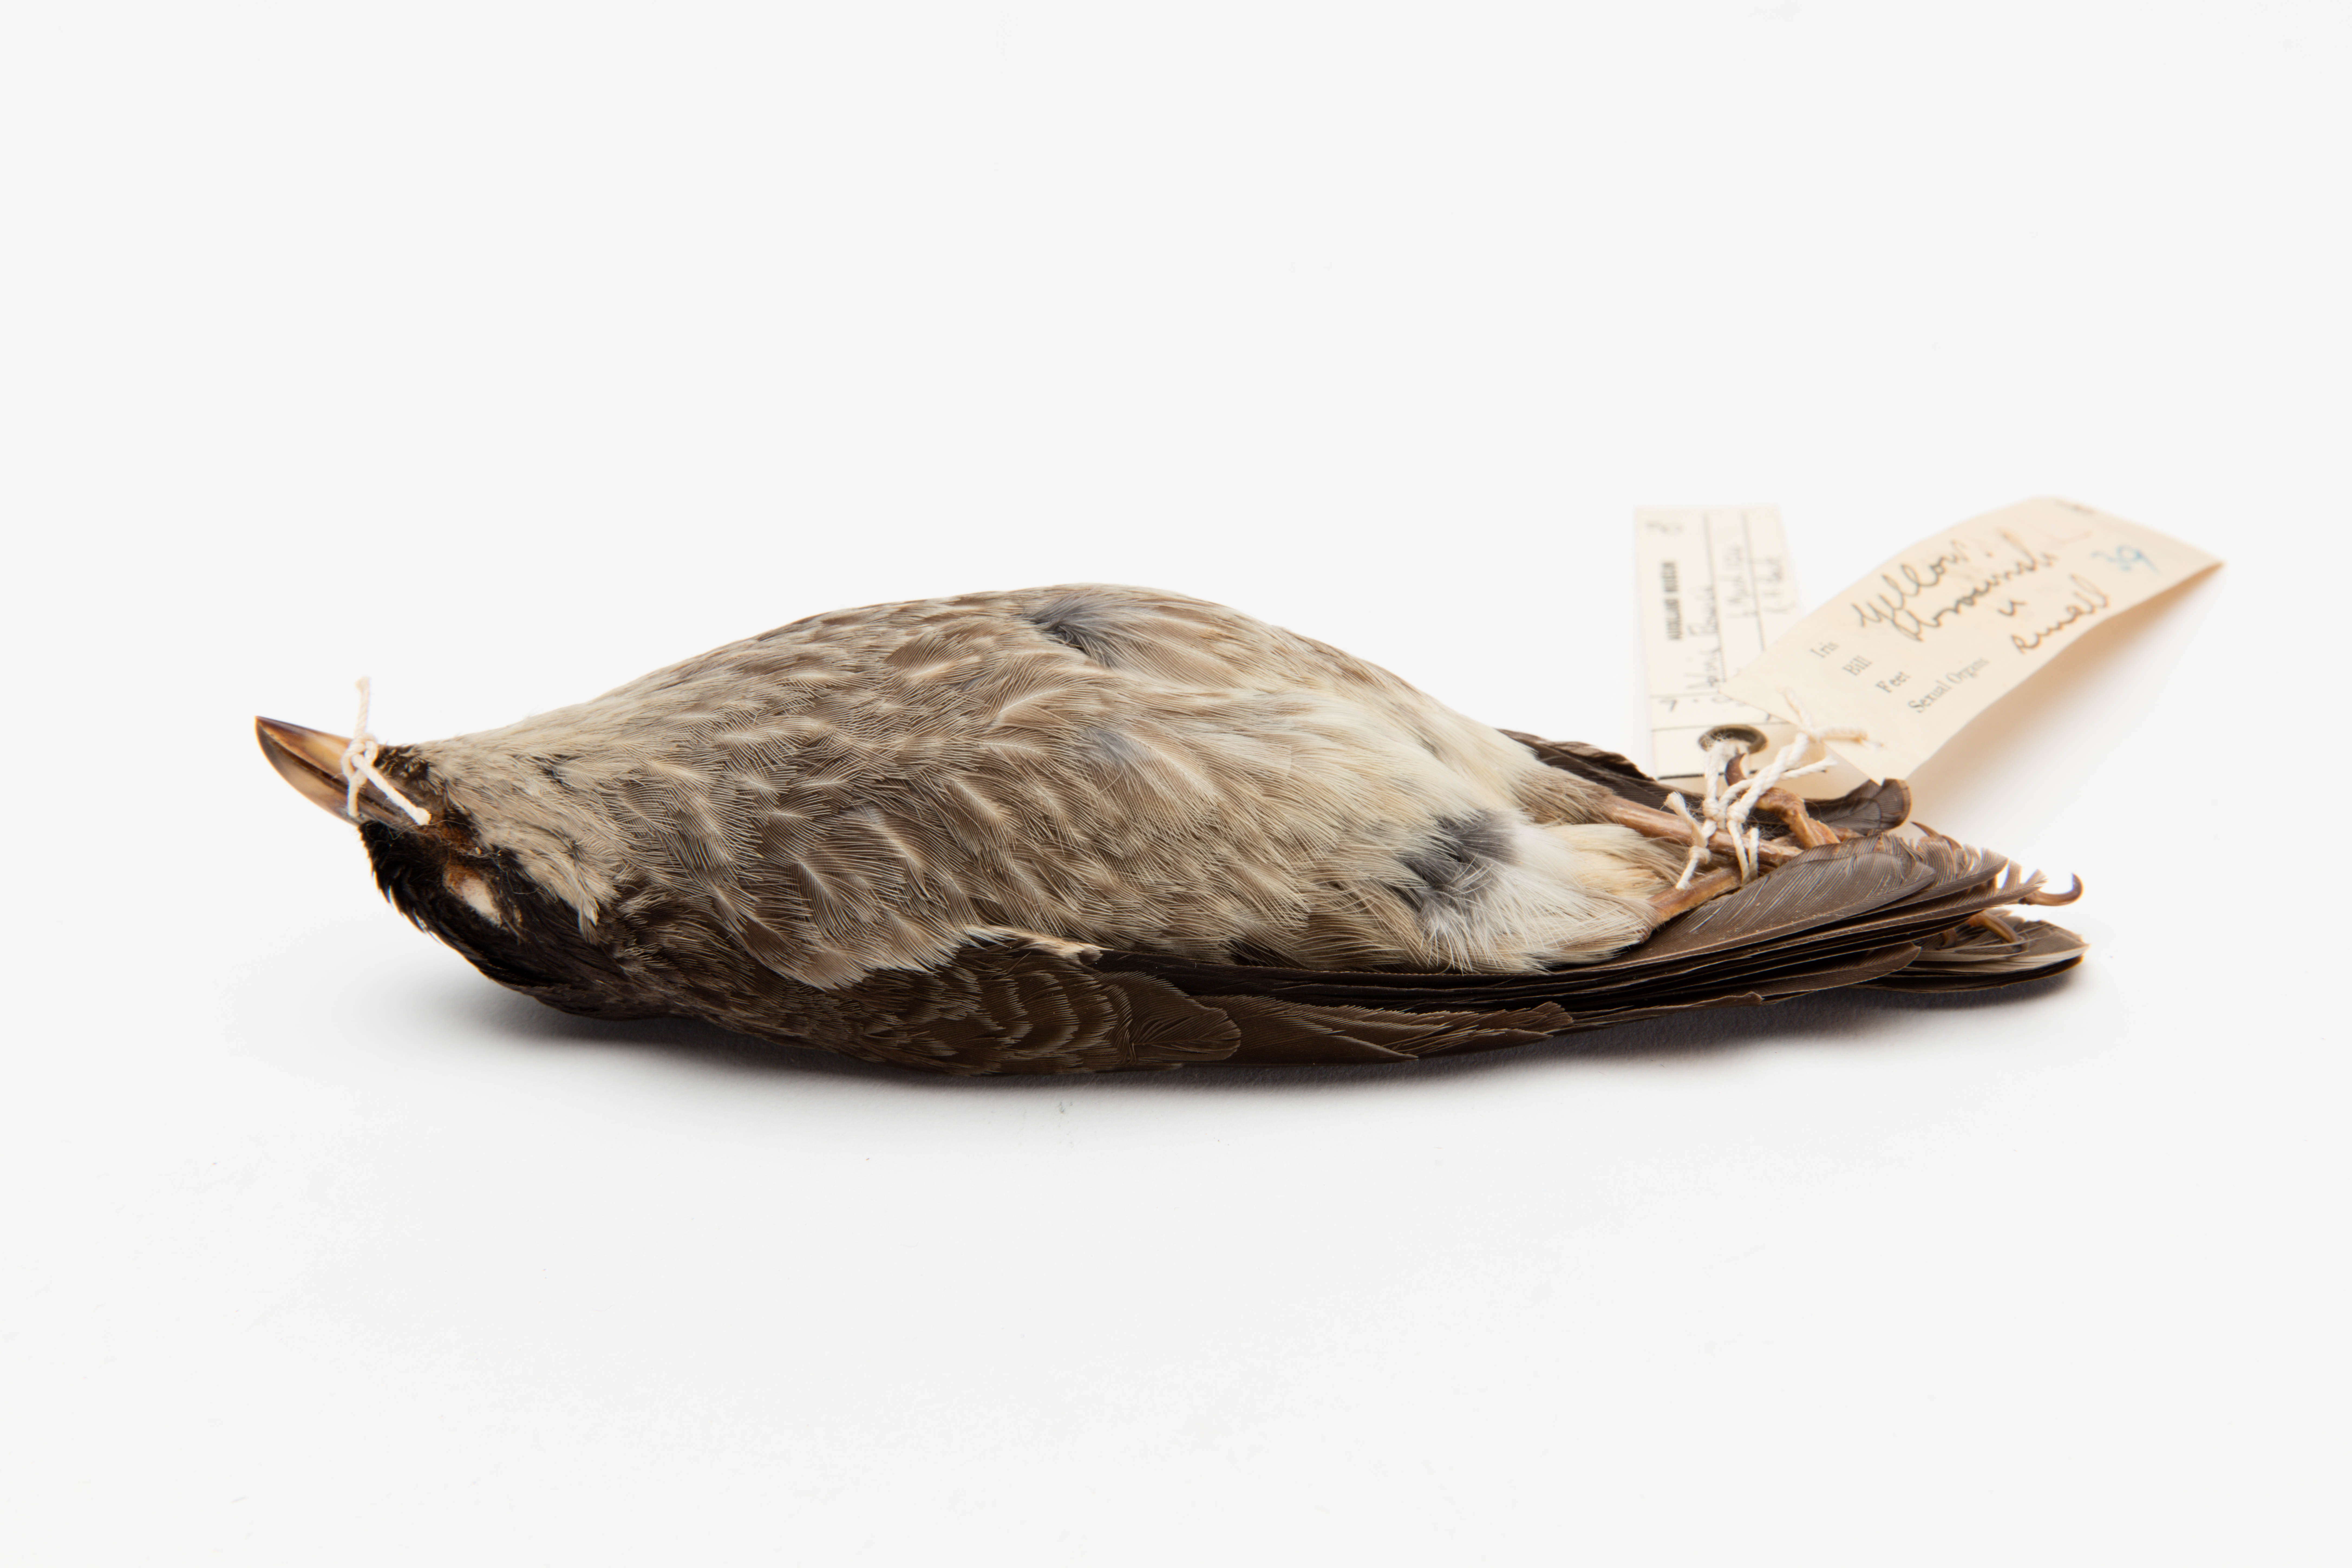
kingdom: Animalia
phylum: Chordata
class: Aves
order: Passeriformes
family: Sturnidae
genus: Aplonis
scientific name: Aplonis tabuensis
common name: Polynesian starling
